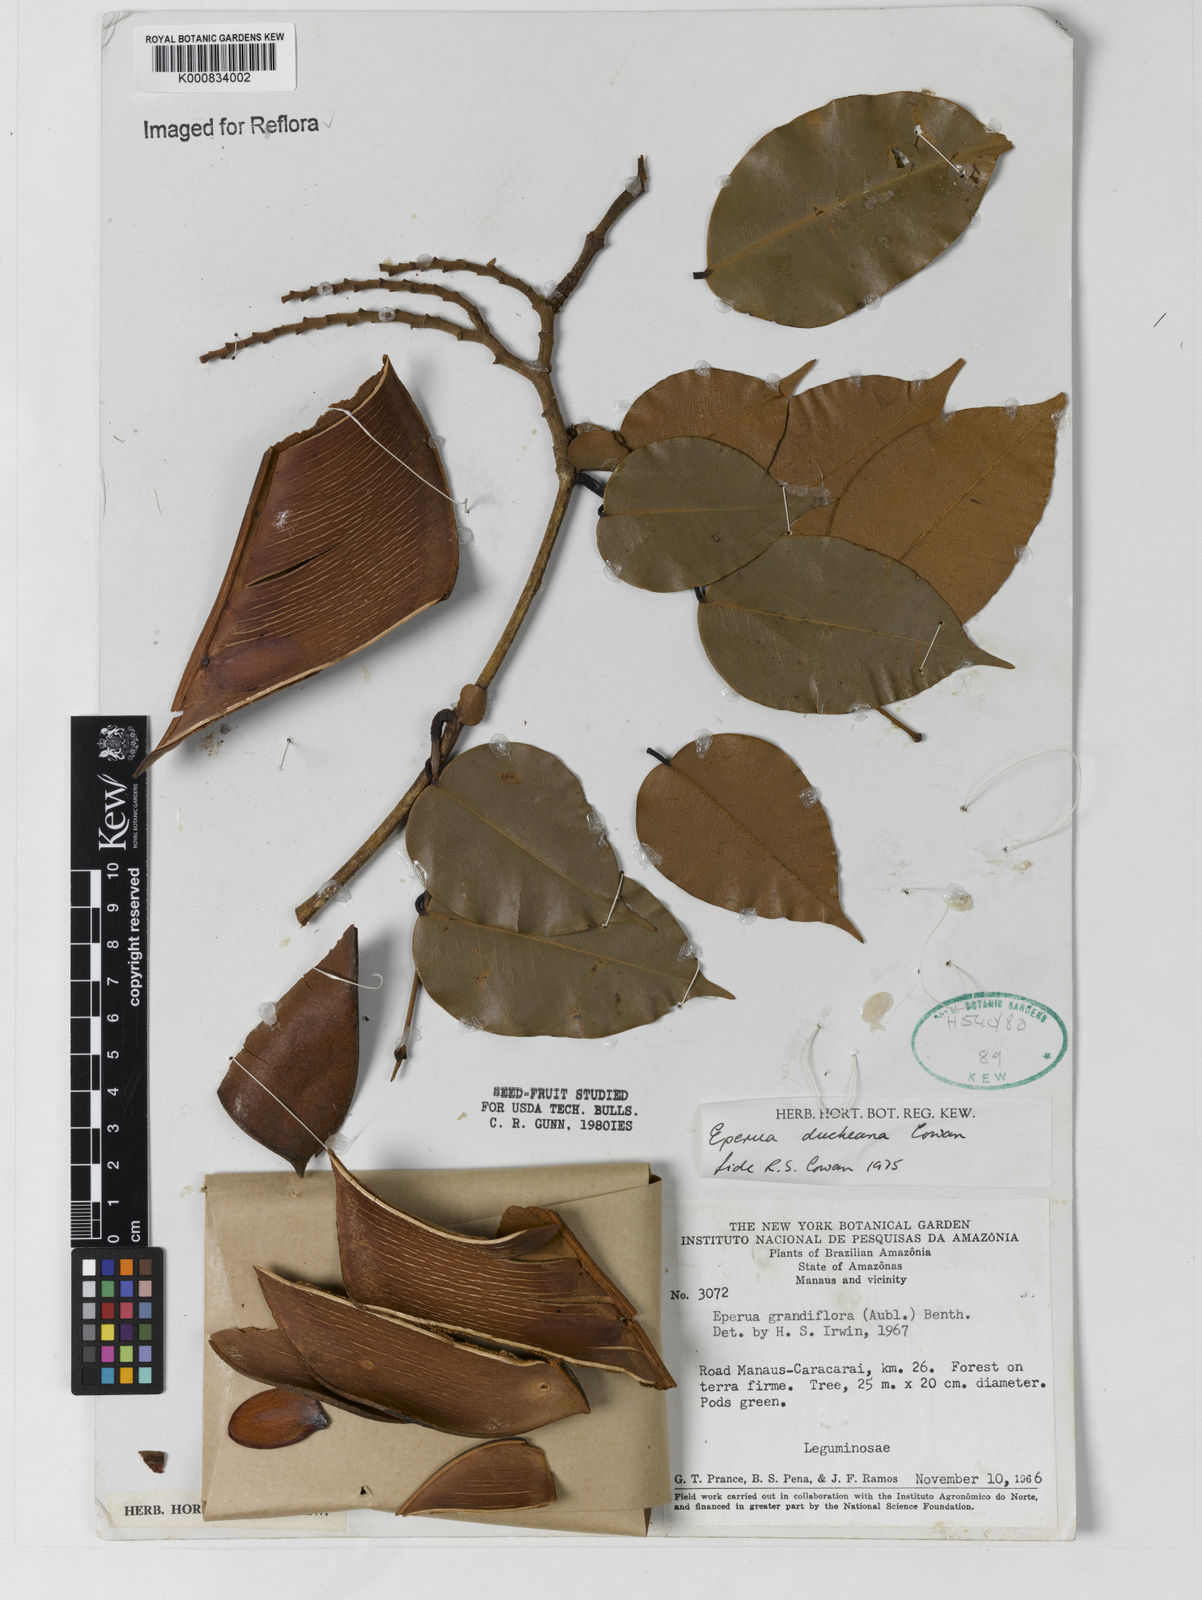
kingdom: Plantae
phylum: Tracheophyta
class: Magnoliopsida
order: Fabales
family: Fabaceae
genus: Eperua
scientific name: Eperua duckeana
